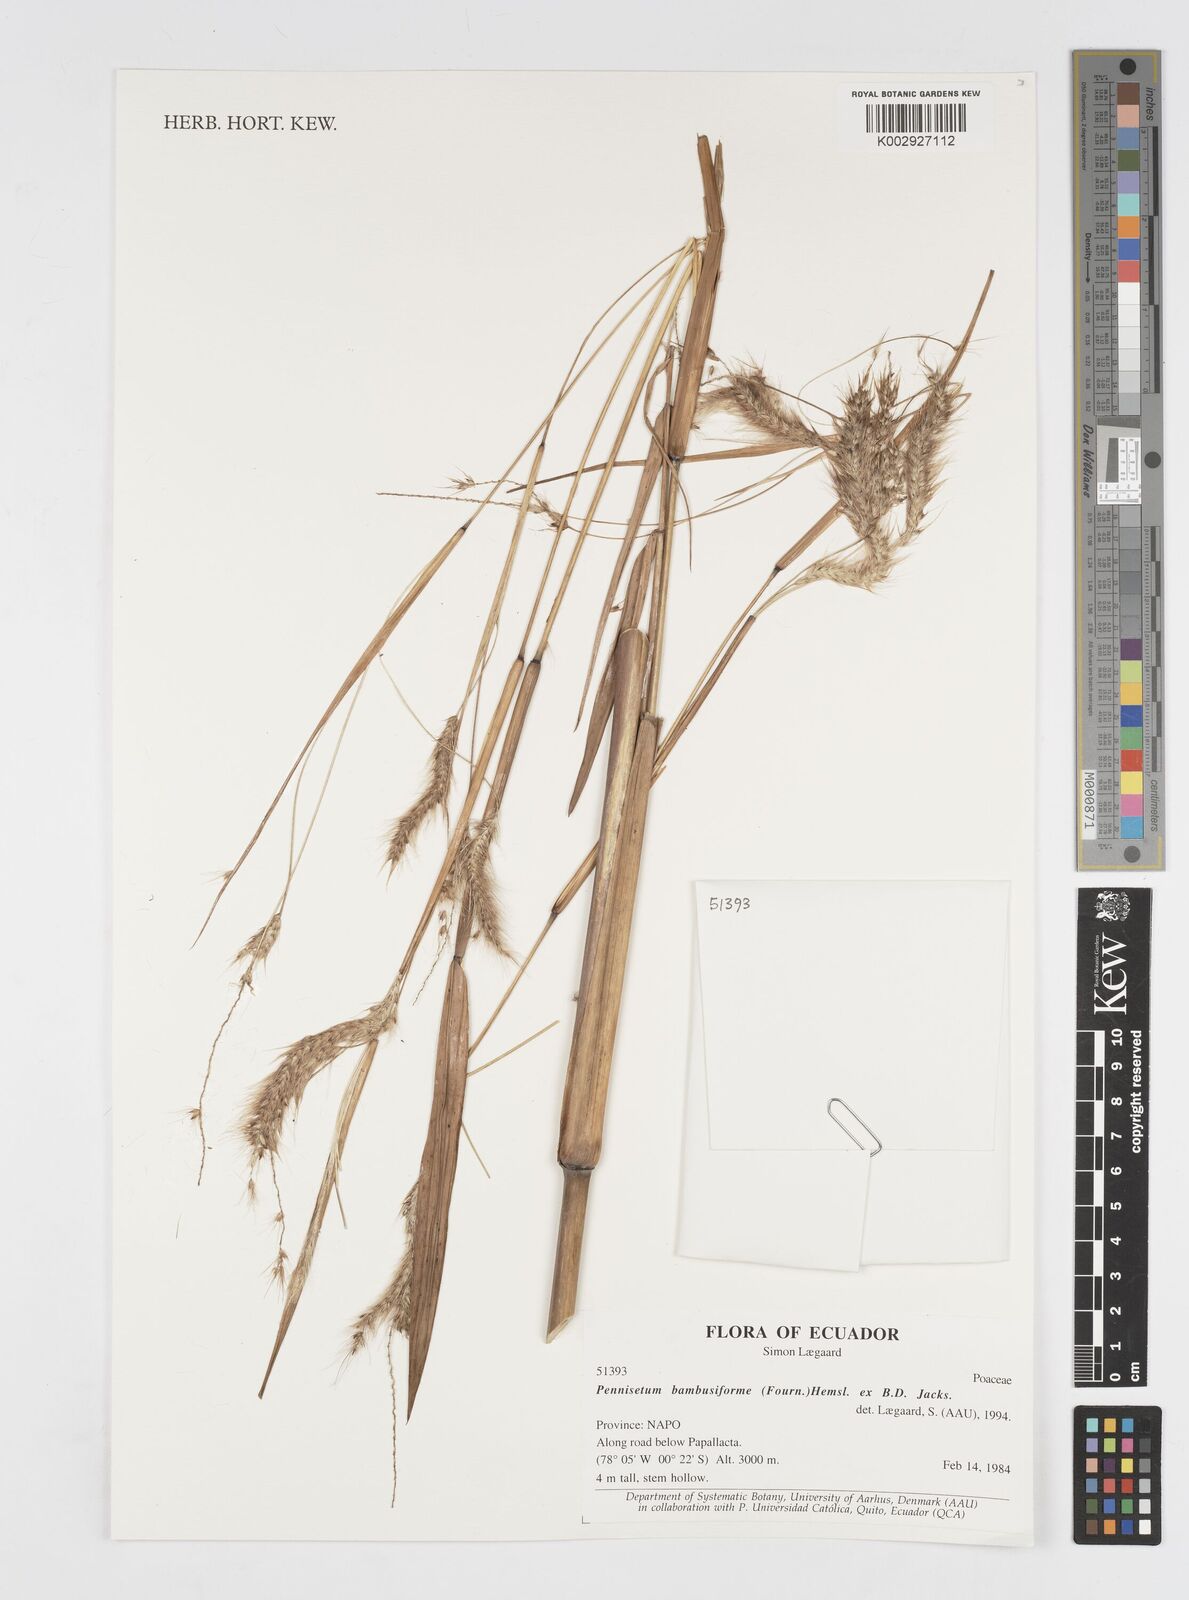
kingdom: Plantae
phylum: Tracheophyta
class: Liliopsida
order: Poales
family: Poaceae
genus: Cenchrus
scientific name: Cenchrus tristachyus
